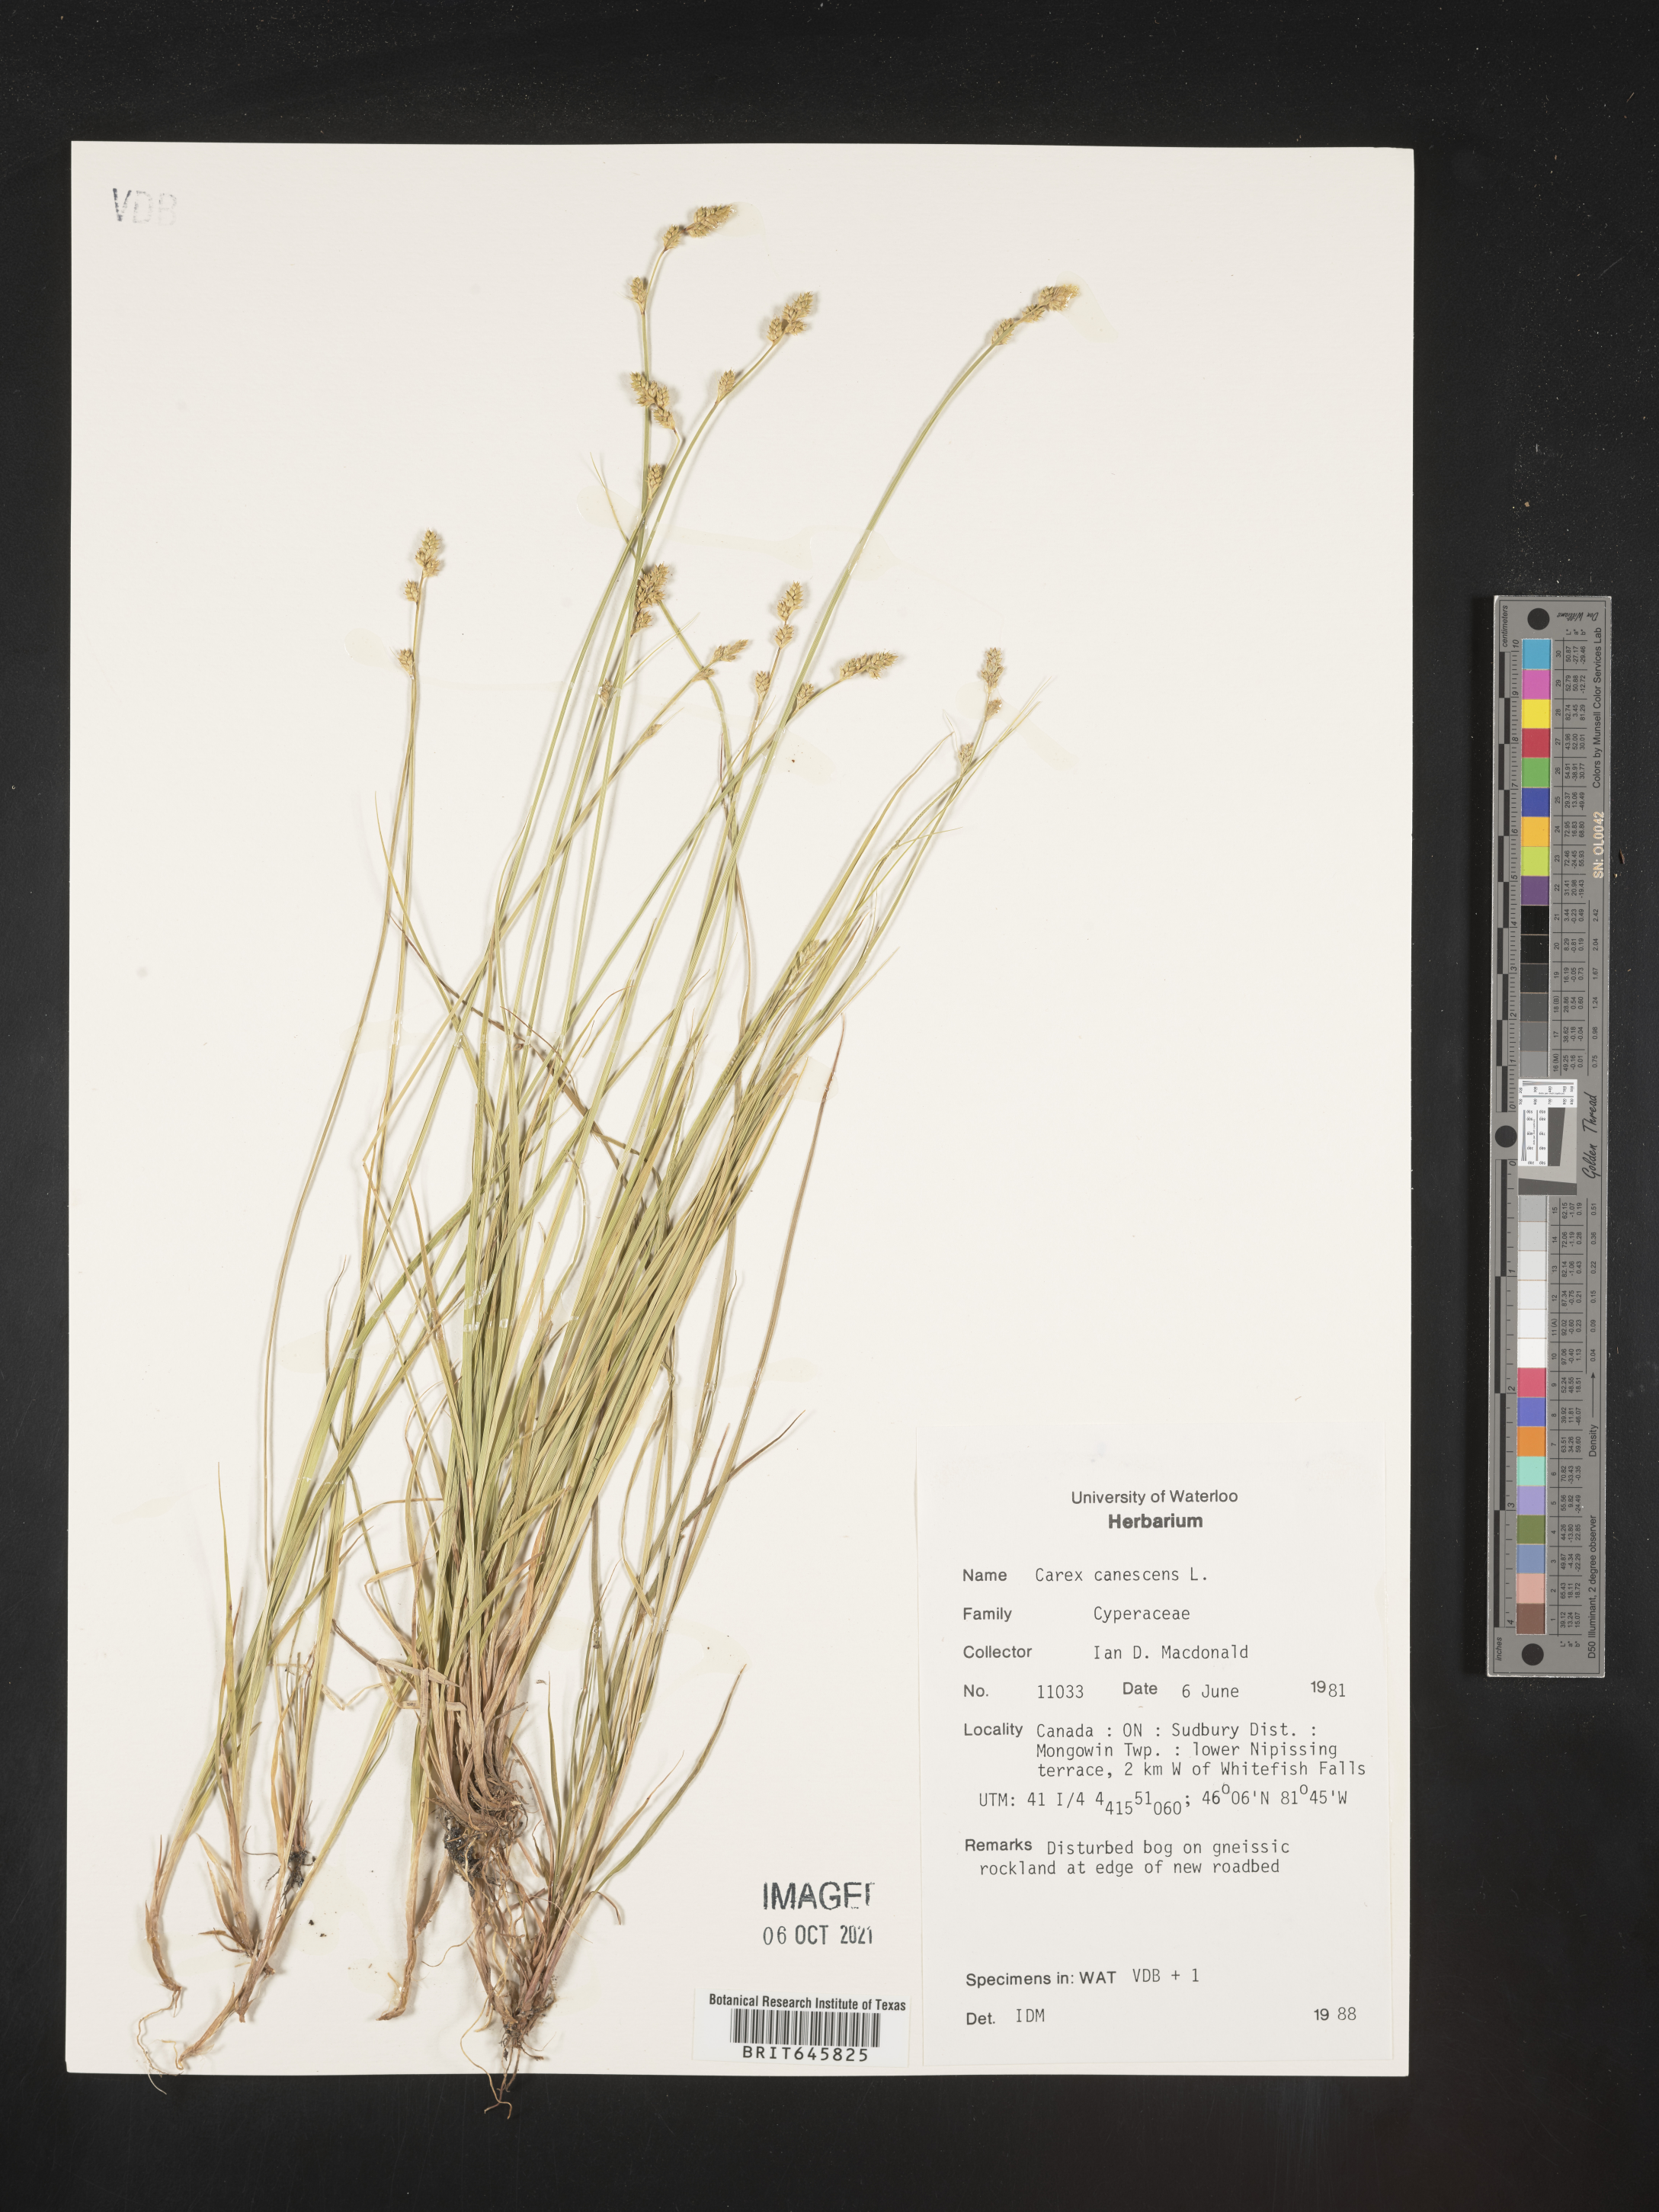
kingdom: Plantae
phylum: Tracheophyta
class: Liliopsida
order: Poales
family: Cyperaceae
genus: Carex
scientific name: Carex canescens
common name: White sedge
